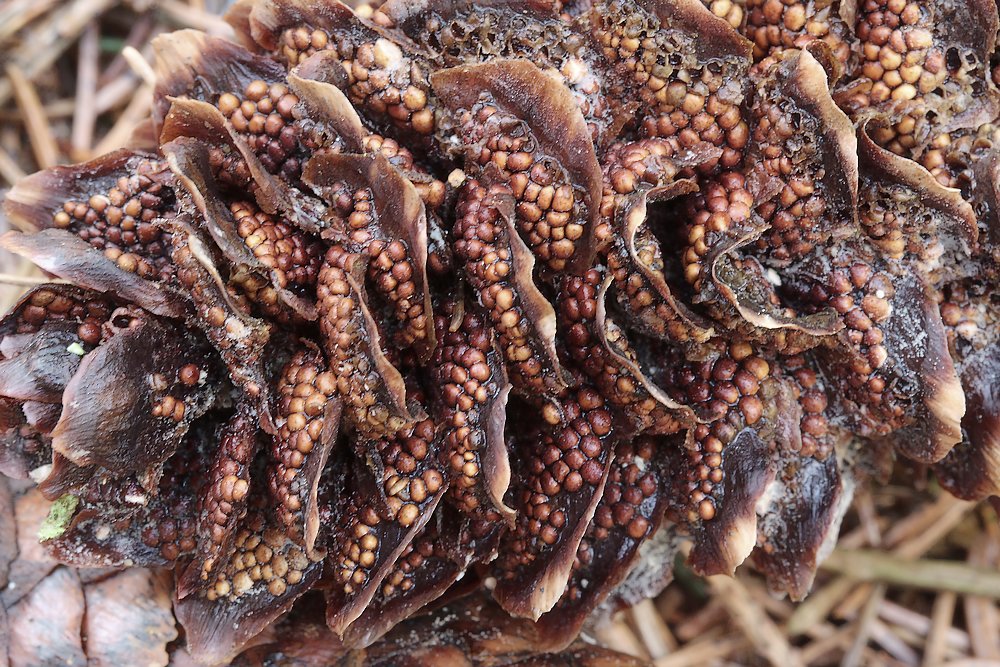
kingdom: Fungi
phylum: Basidiomycota
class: Pucciniomycetes
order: Pucciniales
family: Pucciniastraceae
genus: Thekopsora
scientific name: Thekopsora areolata
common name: grankogle-nålerust
